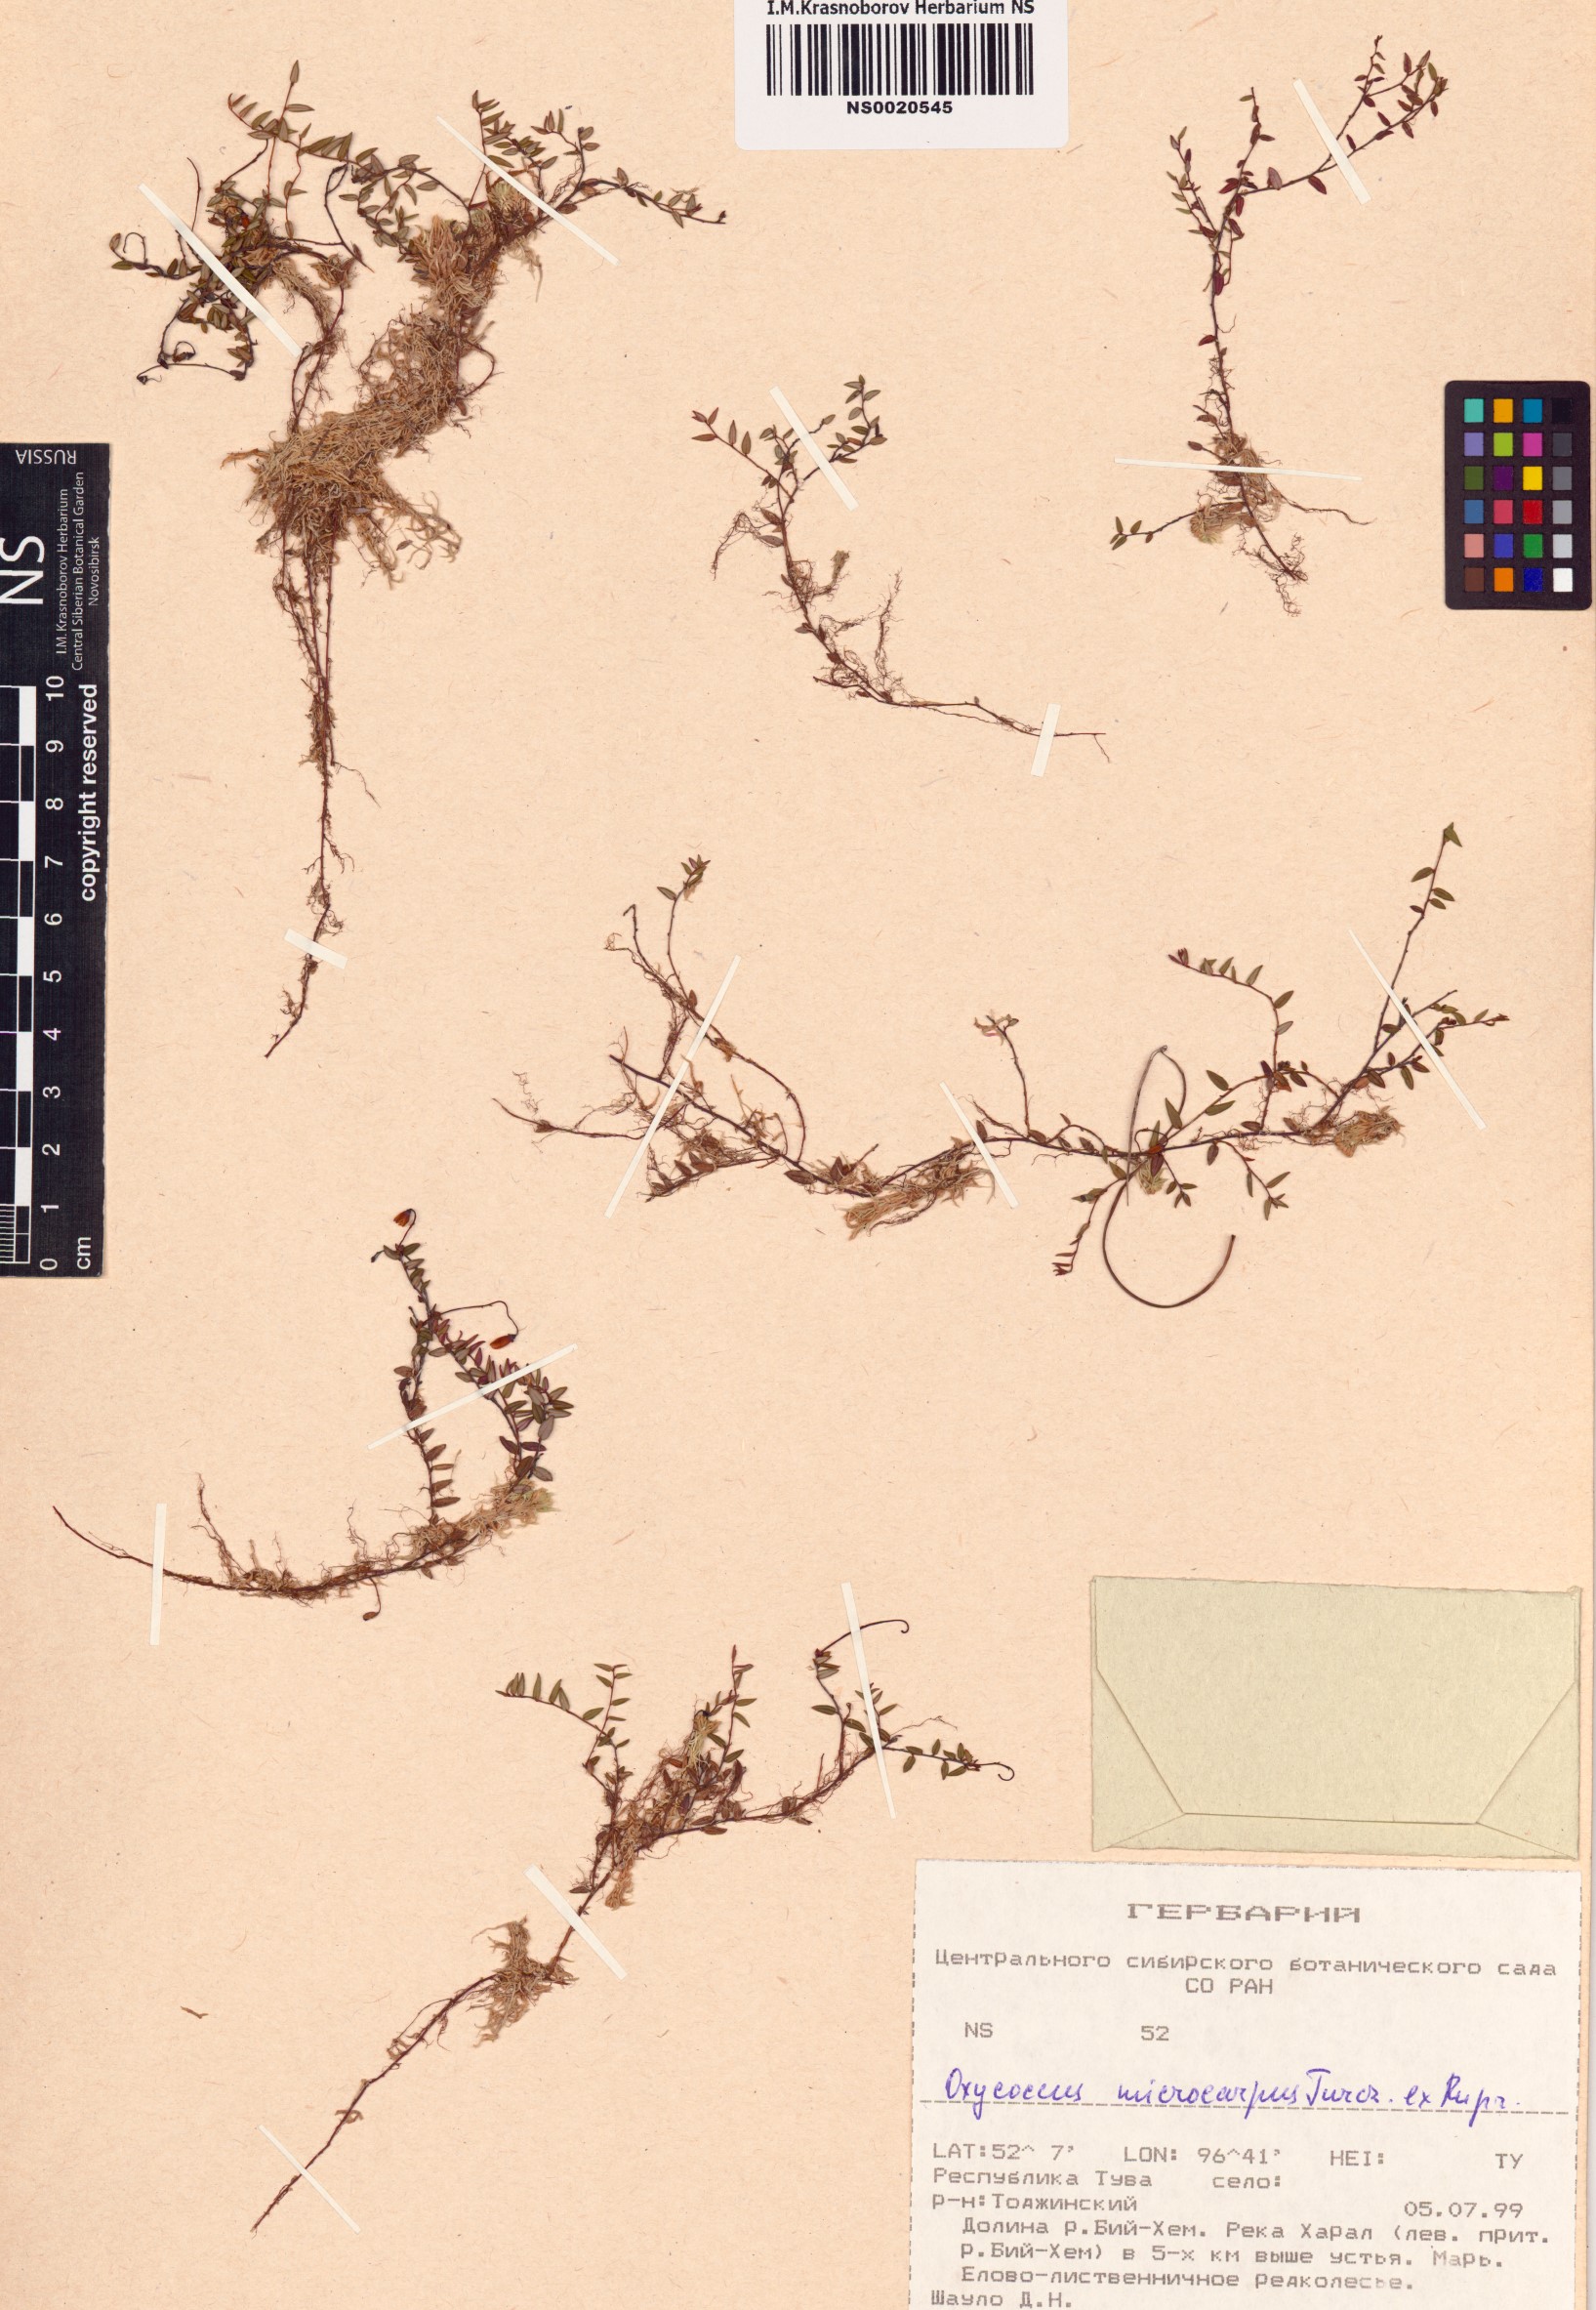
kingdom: Plantae
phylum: Tracheophyta
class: Magnoliopsida
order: Ericales
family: Ericaceae
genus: Vaccinium
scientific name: Vaccinium microcarpum
